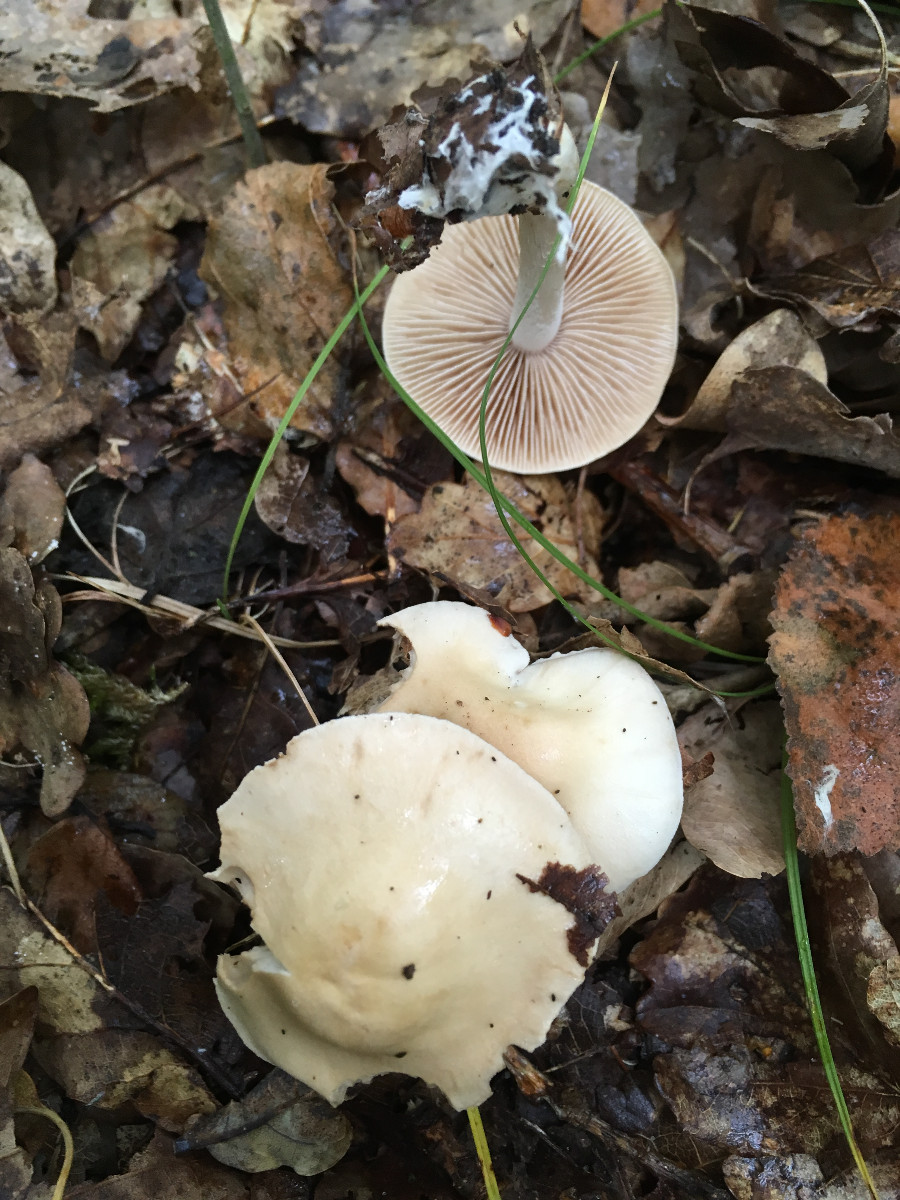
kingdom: Fungi
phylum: Basidiomycota
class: Agaricomycetes
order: Agaricales
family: Hymenogastraceae
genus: Hebeloma
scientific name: Hebeloma
